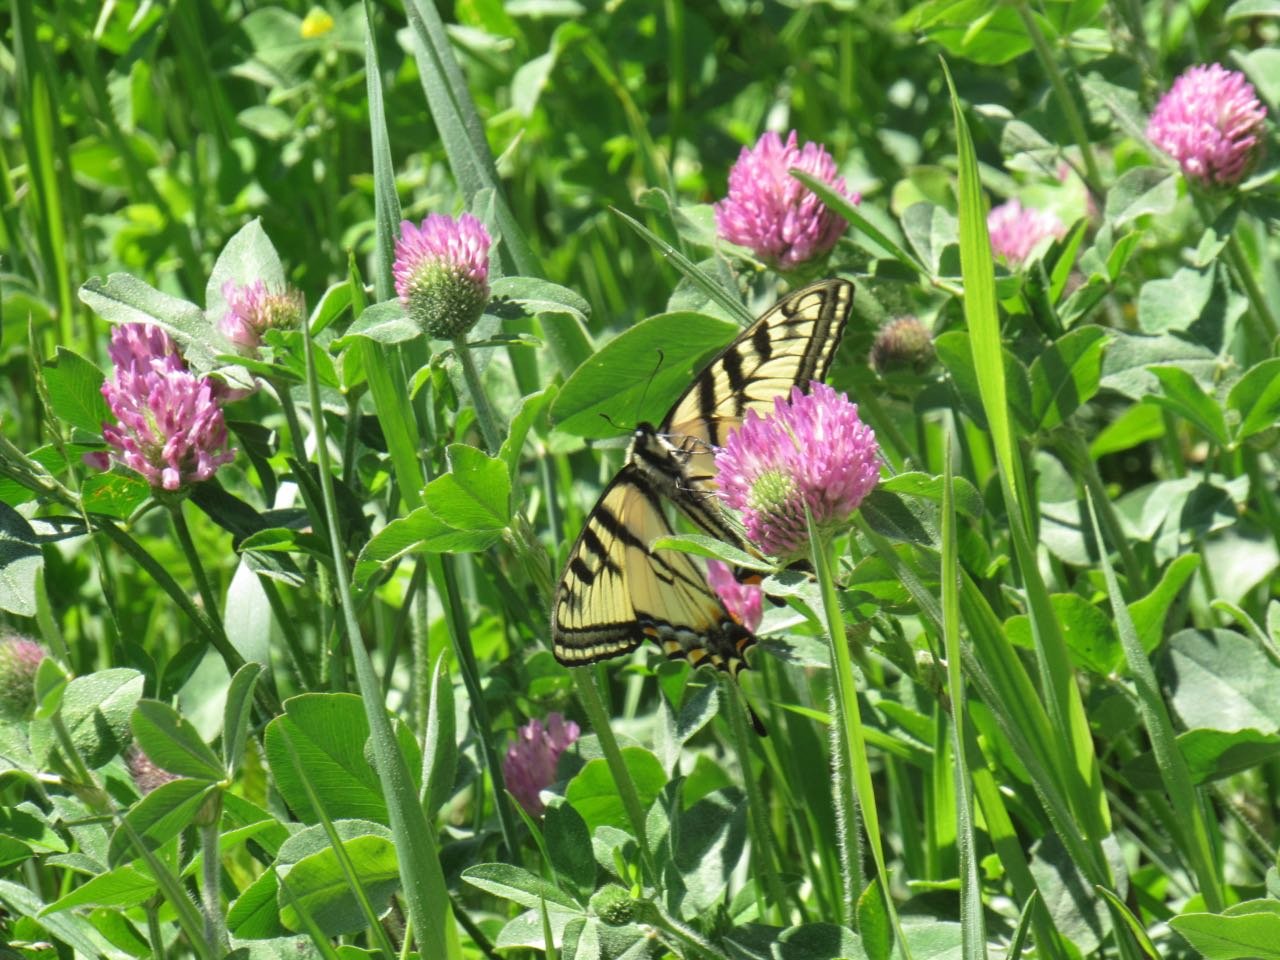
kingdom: Animalia
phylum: Arthropoda
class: Insecta
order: Lepidoptera
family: Papilionidae
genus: Pterourus
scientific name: Pterourus canadensis
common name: Canadian Tiger Swallowtail
